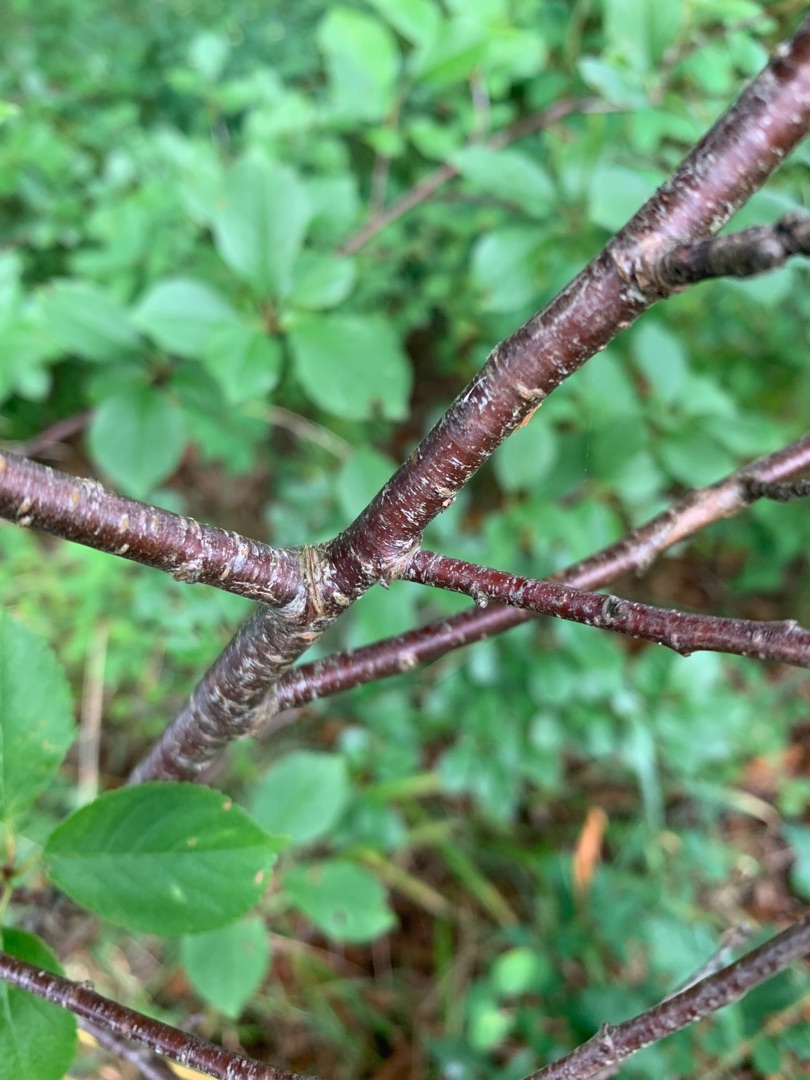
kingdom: Plantae
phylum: Tracheophyta
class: Magnoliopsida
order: Rosales
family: Rosaceae
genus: Prunus
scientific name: Prunus cerasus
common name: Sur-kirsebær
